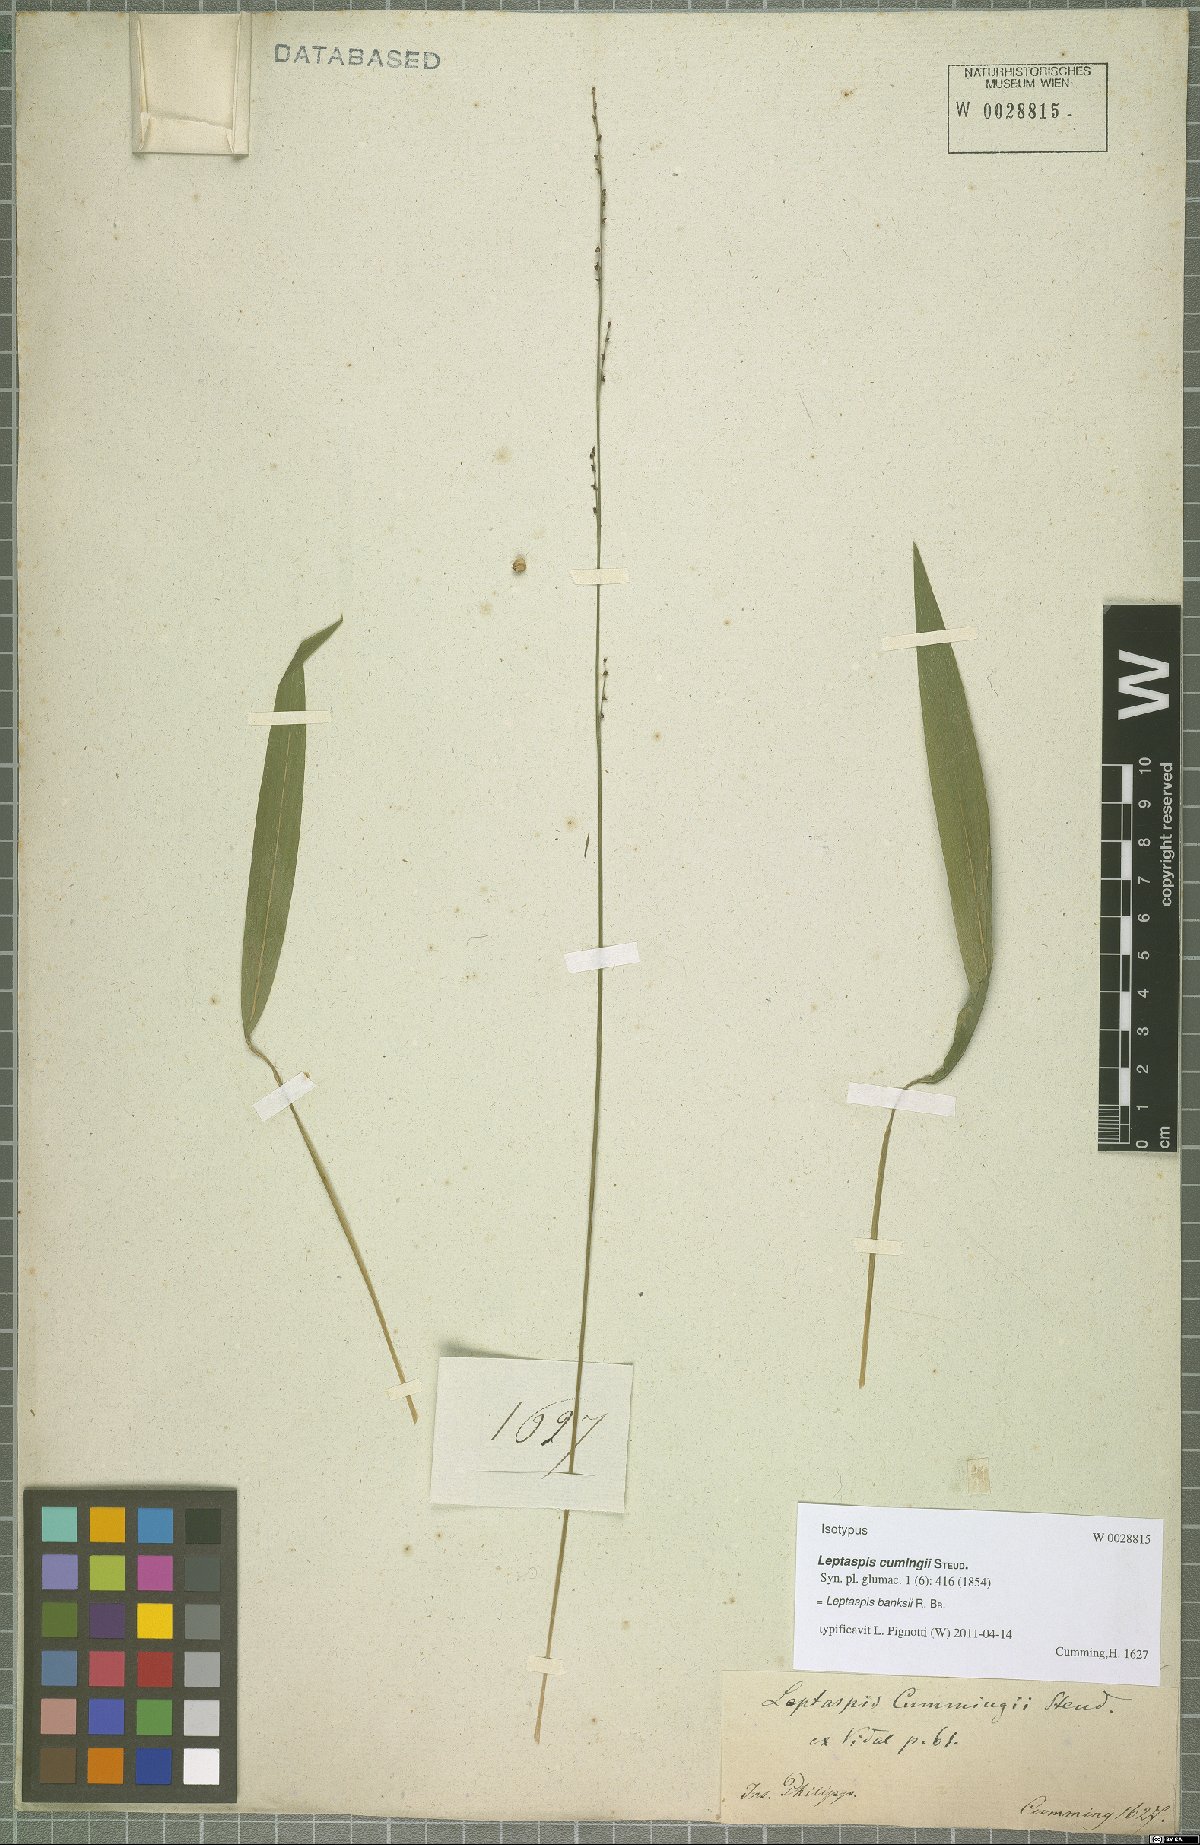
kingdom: Plantae
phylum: Tracheophyta
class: Liliopsida
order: Poales
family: Poaceae
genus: Leptaspis
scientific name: Leptaspis banksii
